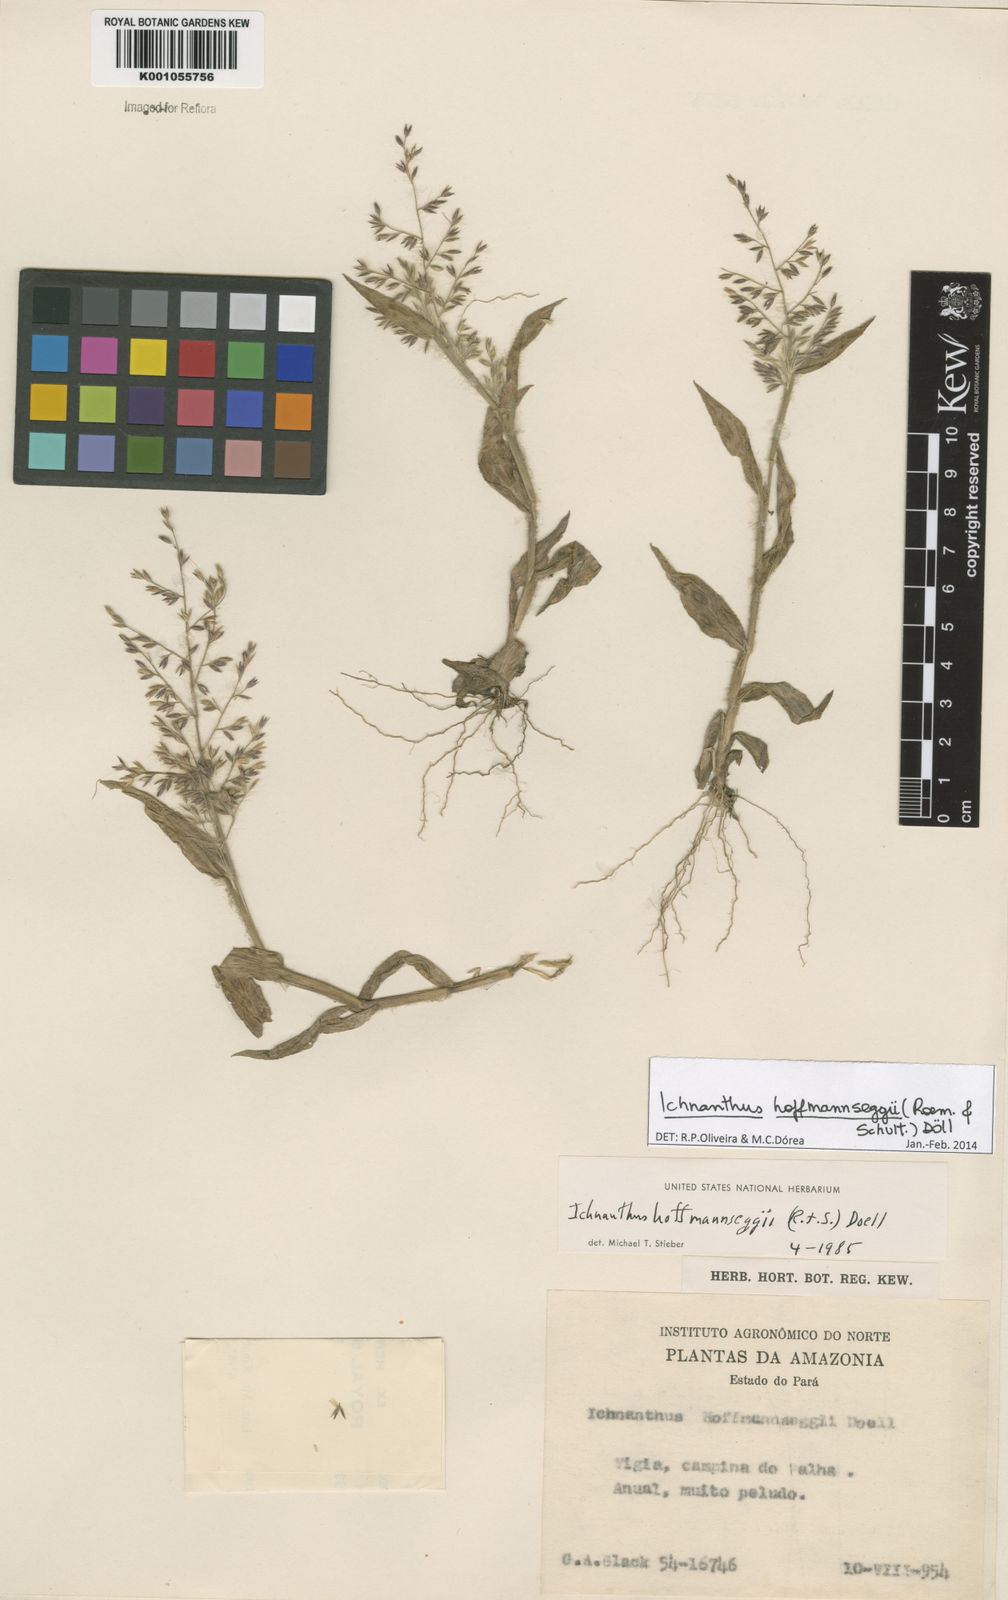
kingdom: Plantae
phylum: Tracheophyta
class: Liliopsida
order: Poales
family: Poaceae
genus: Ichnanthus
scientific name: Ichnanthus
